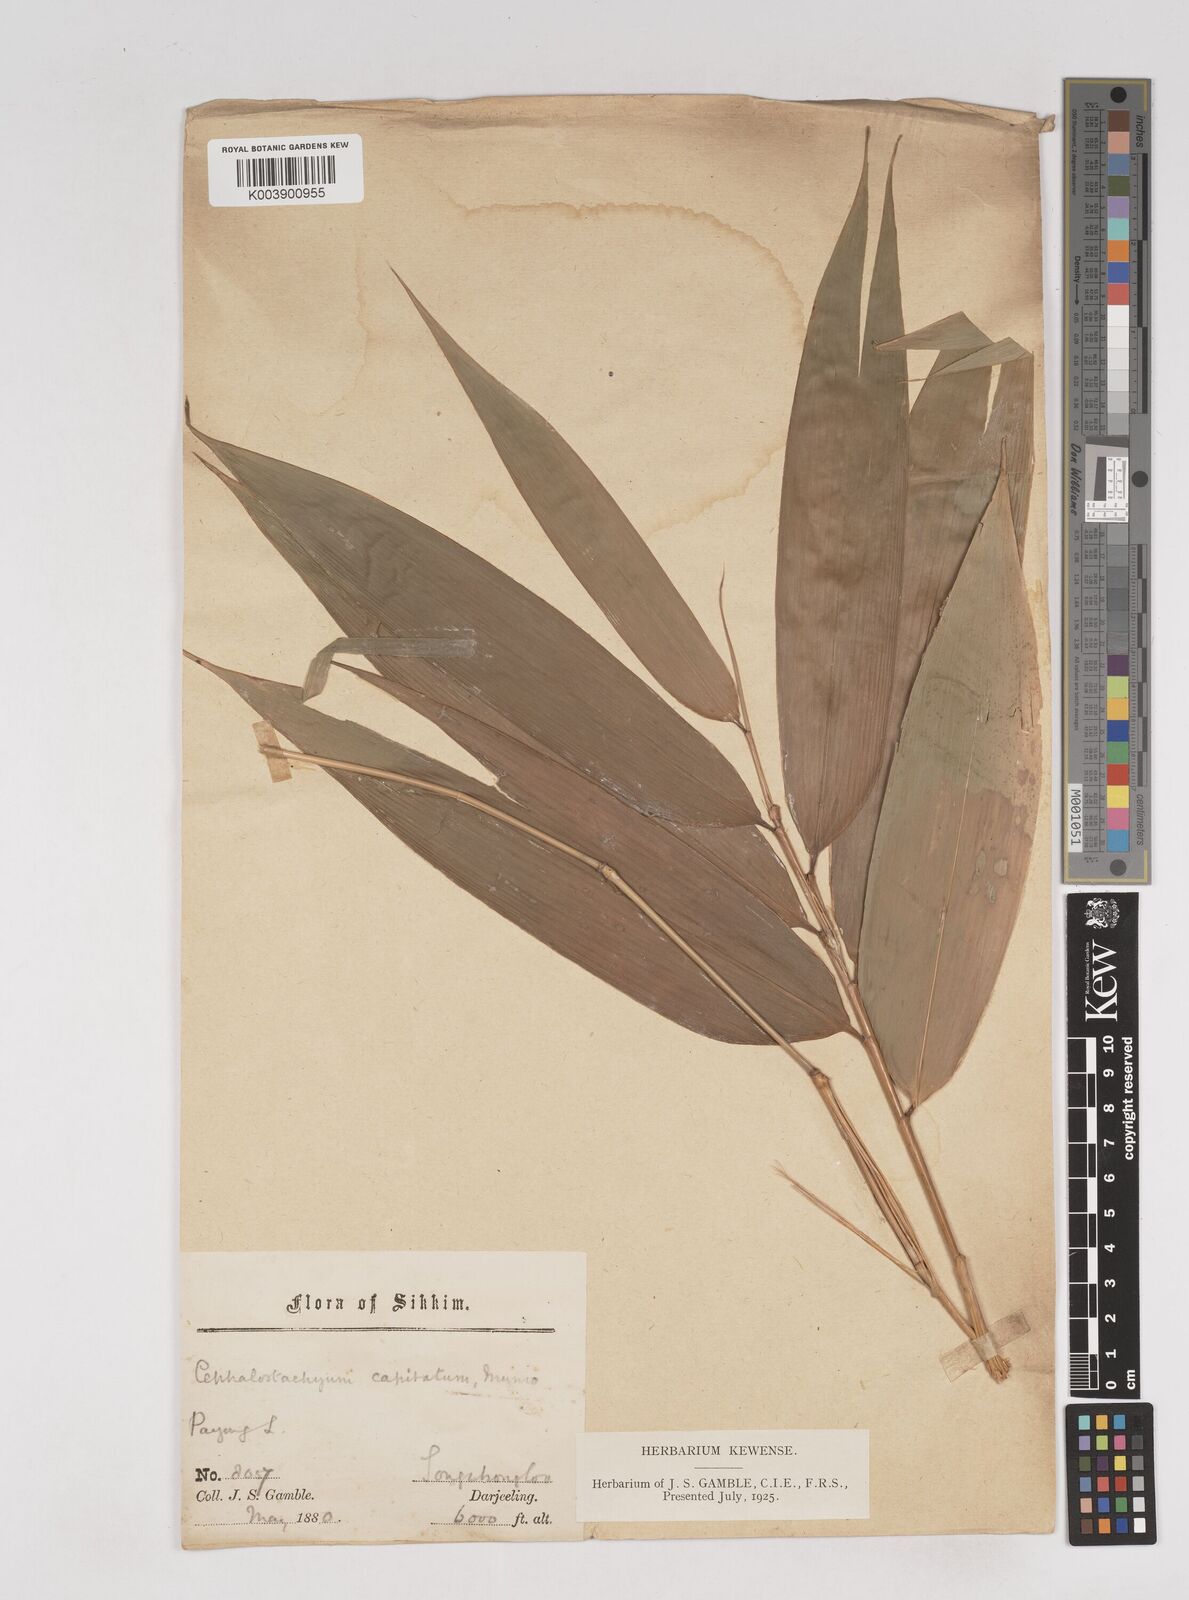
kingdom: Plantae
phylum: Tracheophyta
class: Liliopsida
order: Poales
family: Poaceae
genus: Cephalostachyum
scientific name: Cephalostachyum capitatum
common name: Hollow bamboo
